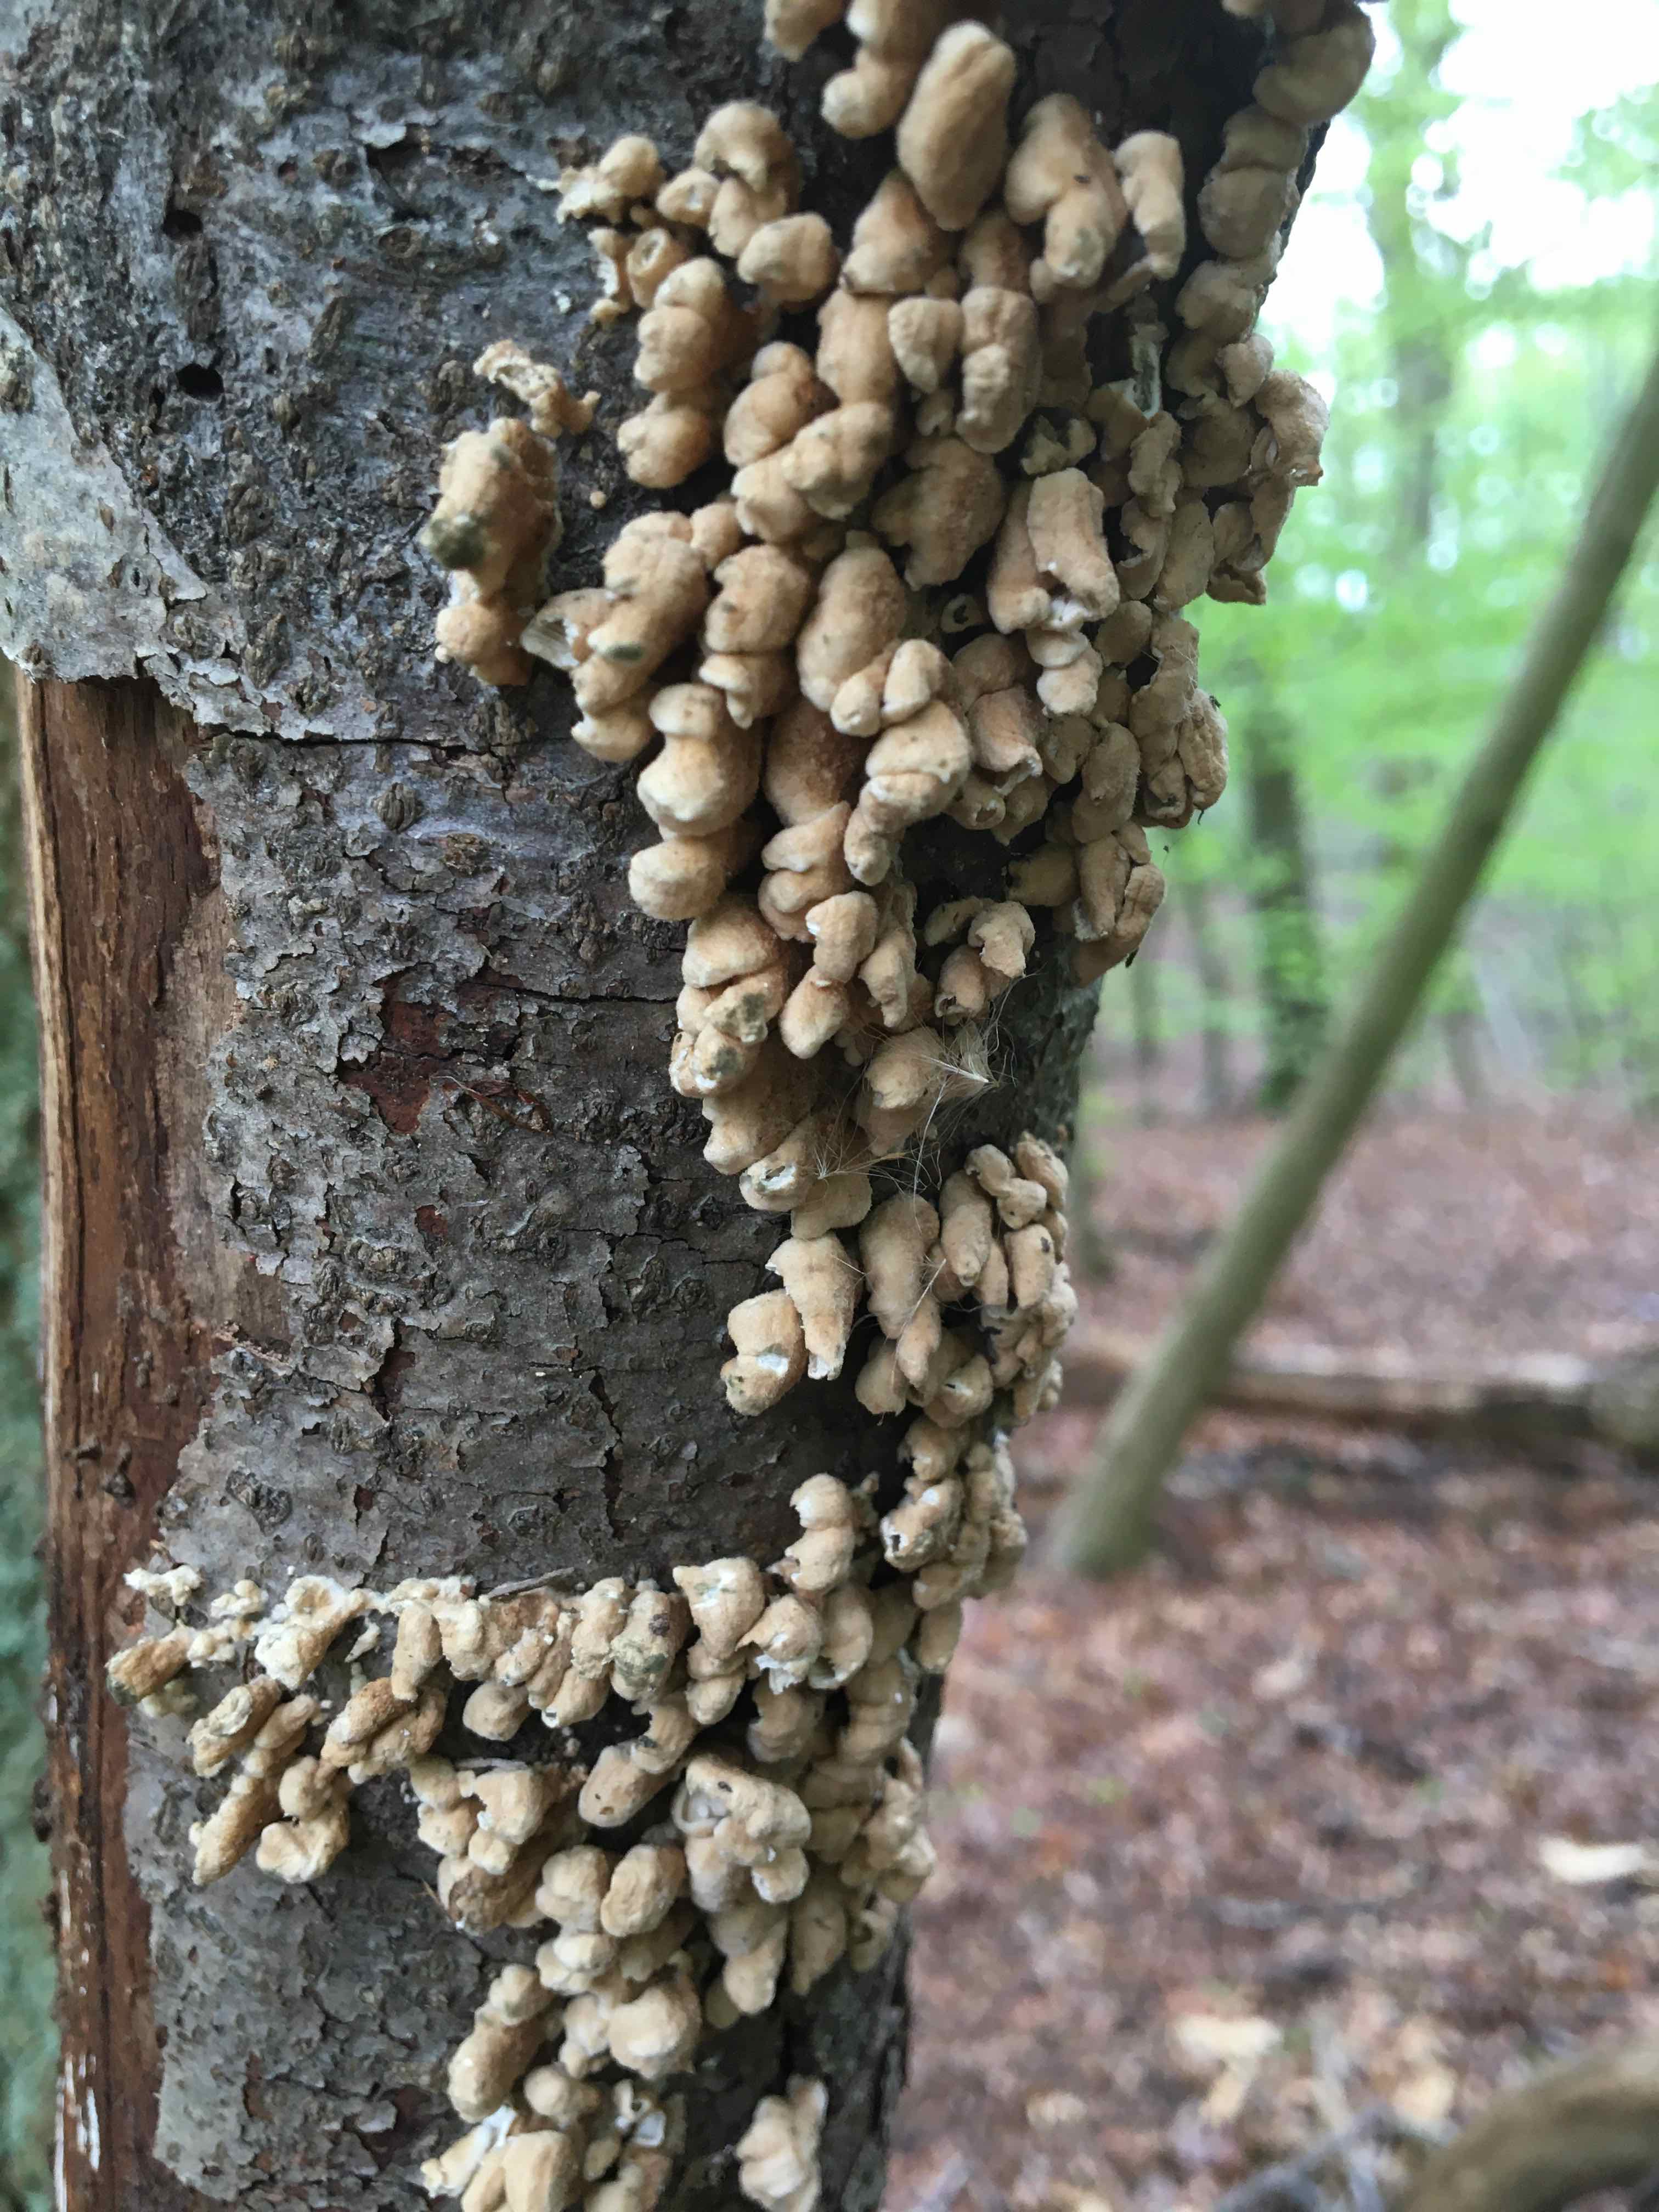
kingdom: Fungi
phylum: Basidiomycota
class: Agaricomycetes
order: Amylocorticiales
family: Amylocorticiaceae
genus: Plicaturopsis
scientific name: Plicaturopsis crispa
